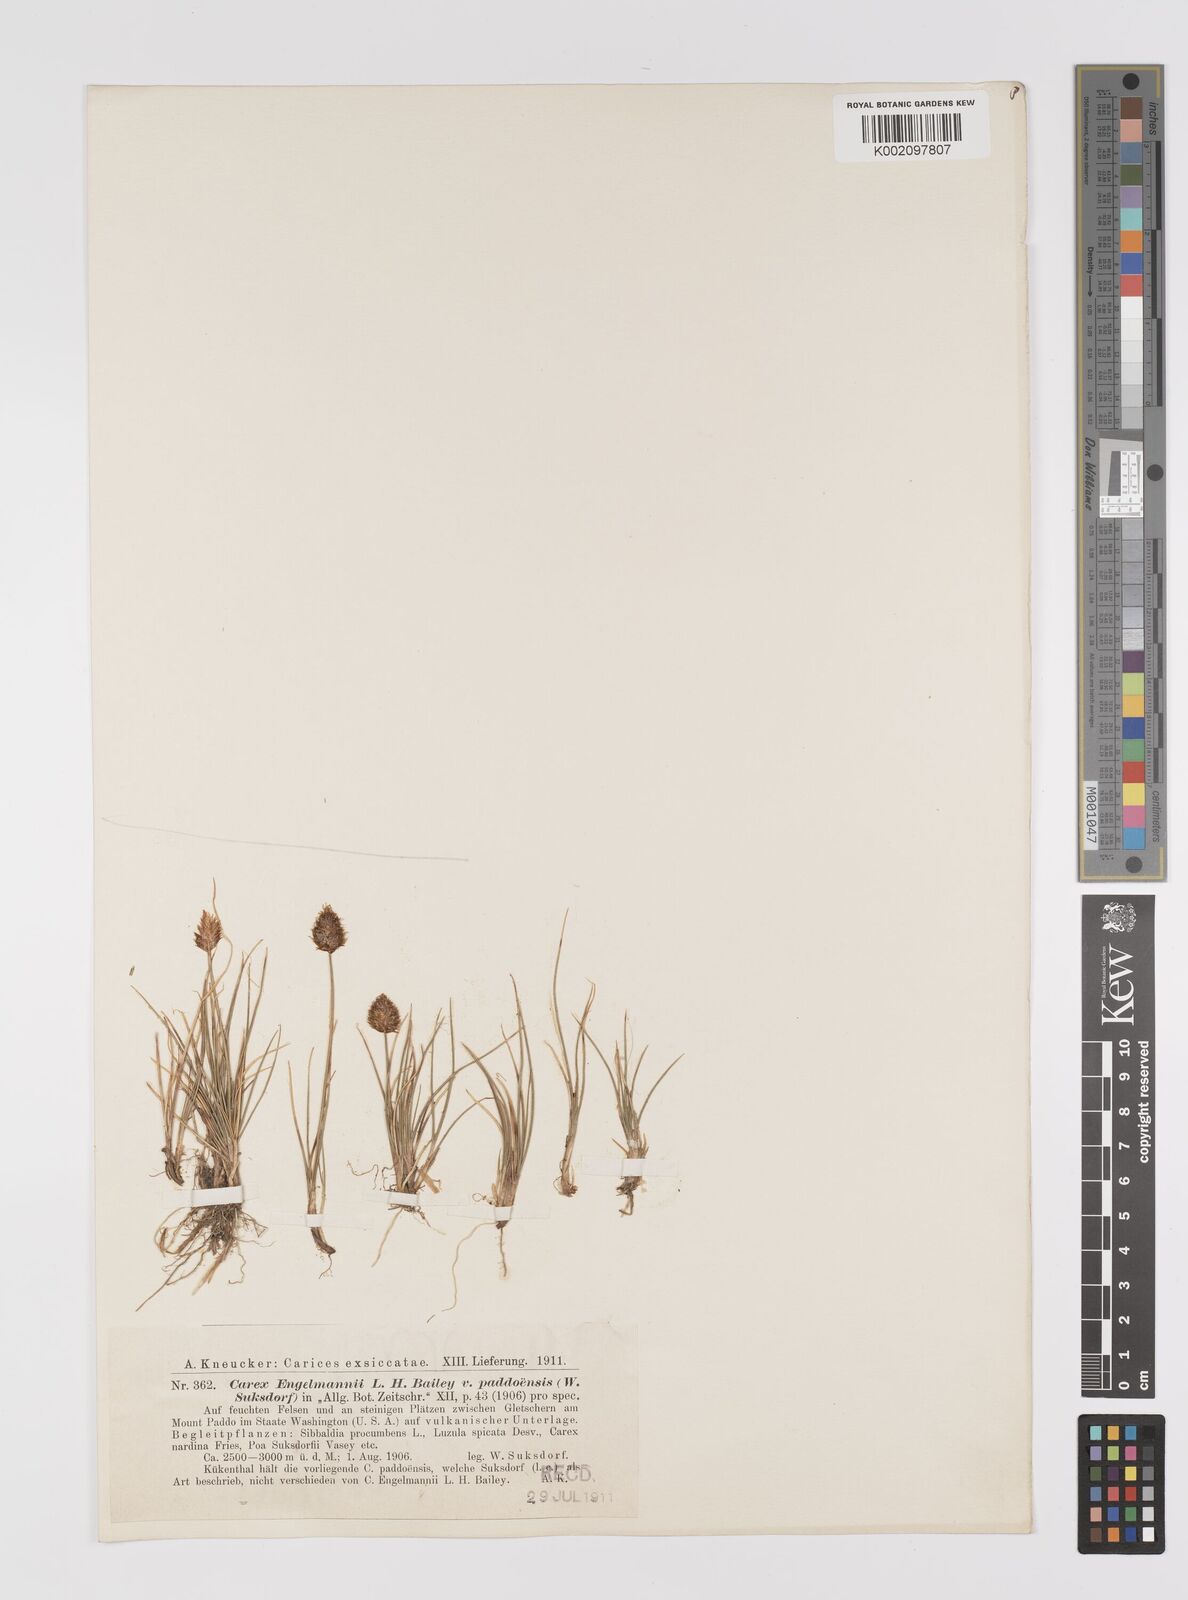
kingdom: Plantae
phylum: Tracheophyta
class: Liliopsida
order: Poales
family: Cyperaceae
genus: Carex
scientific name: Carex engelmannii
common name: Engelmann's sedge
